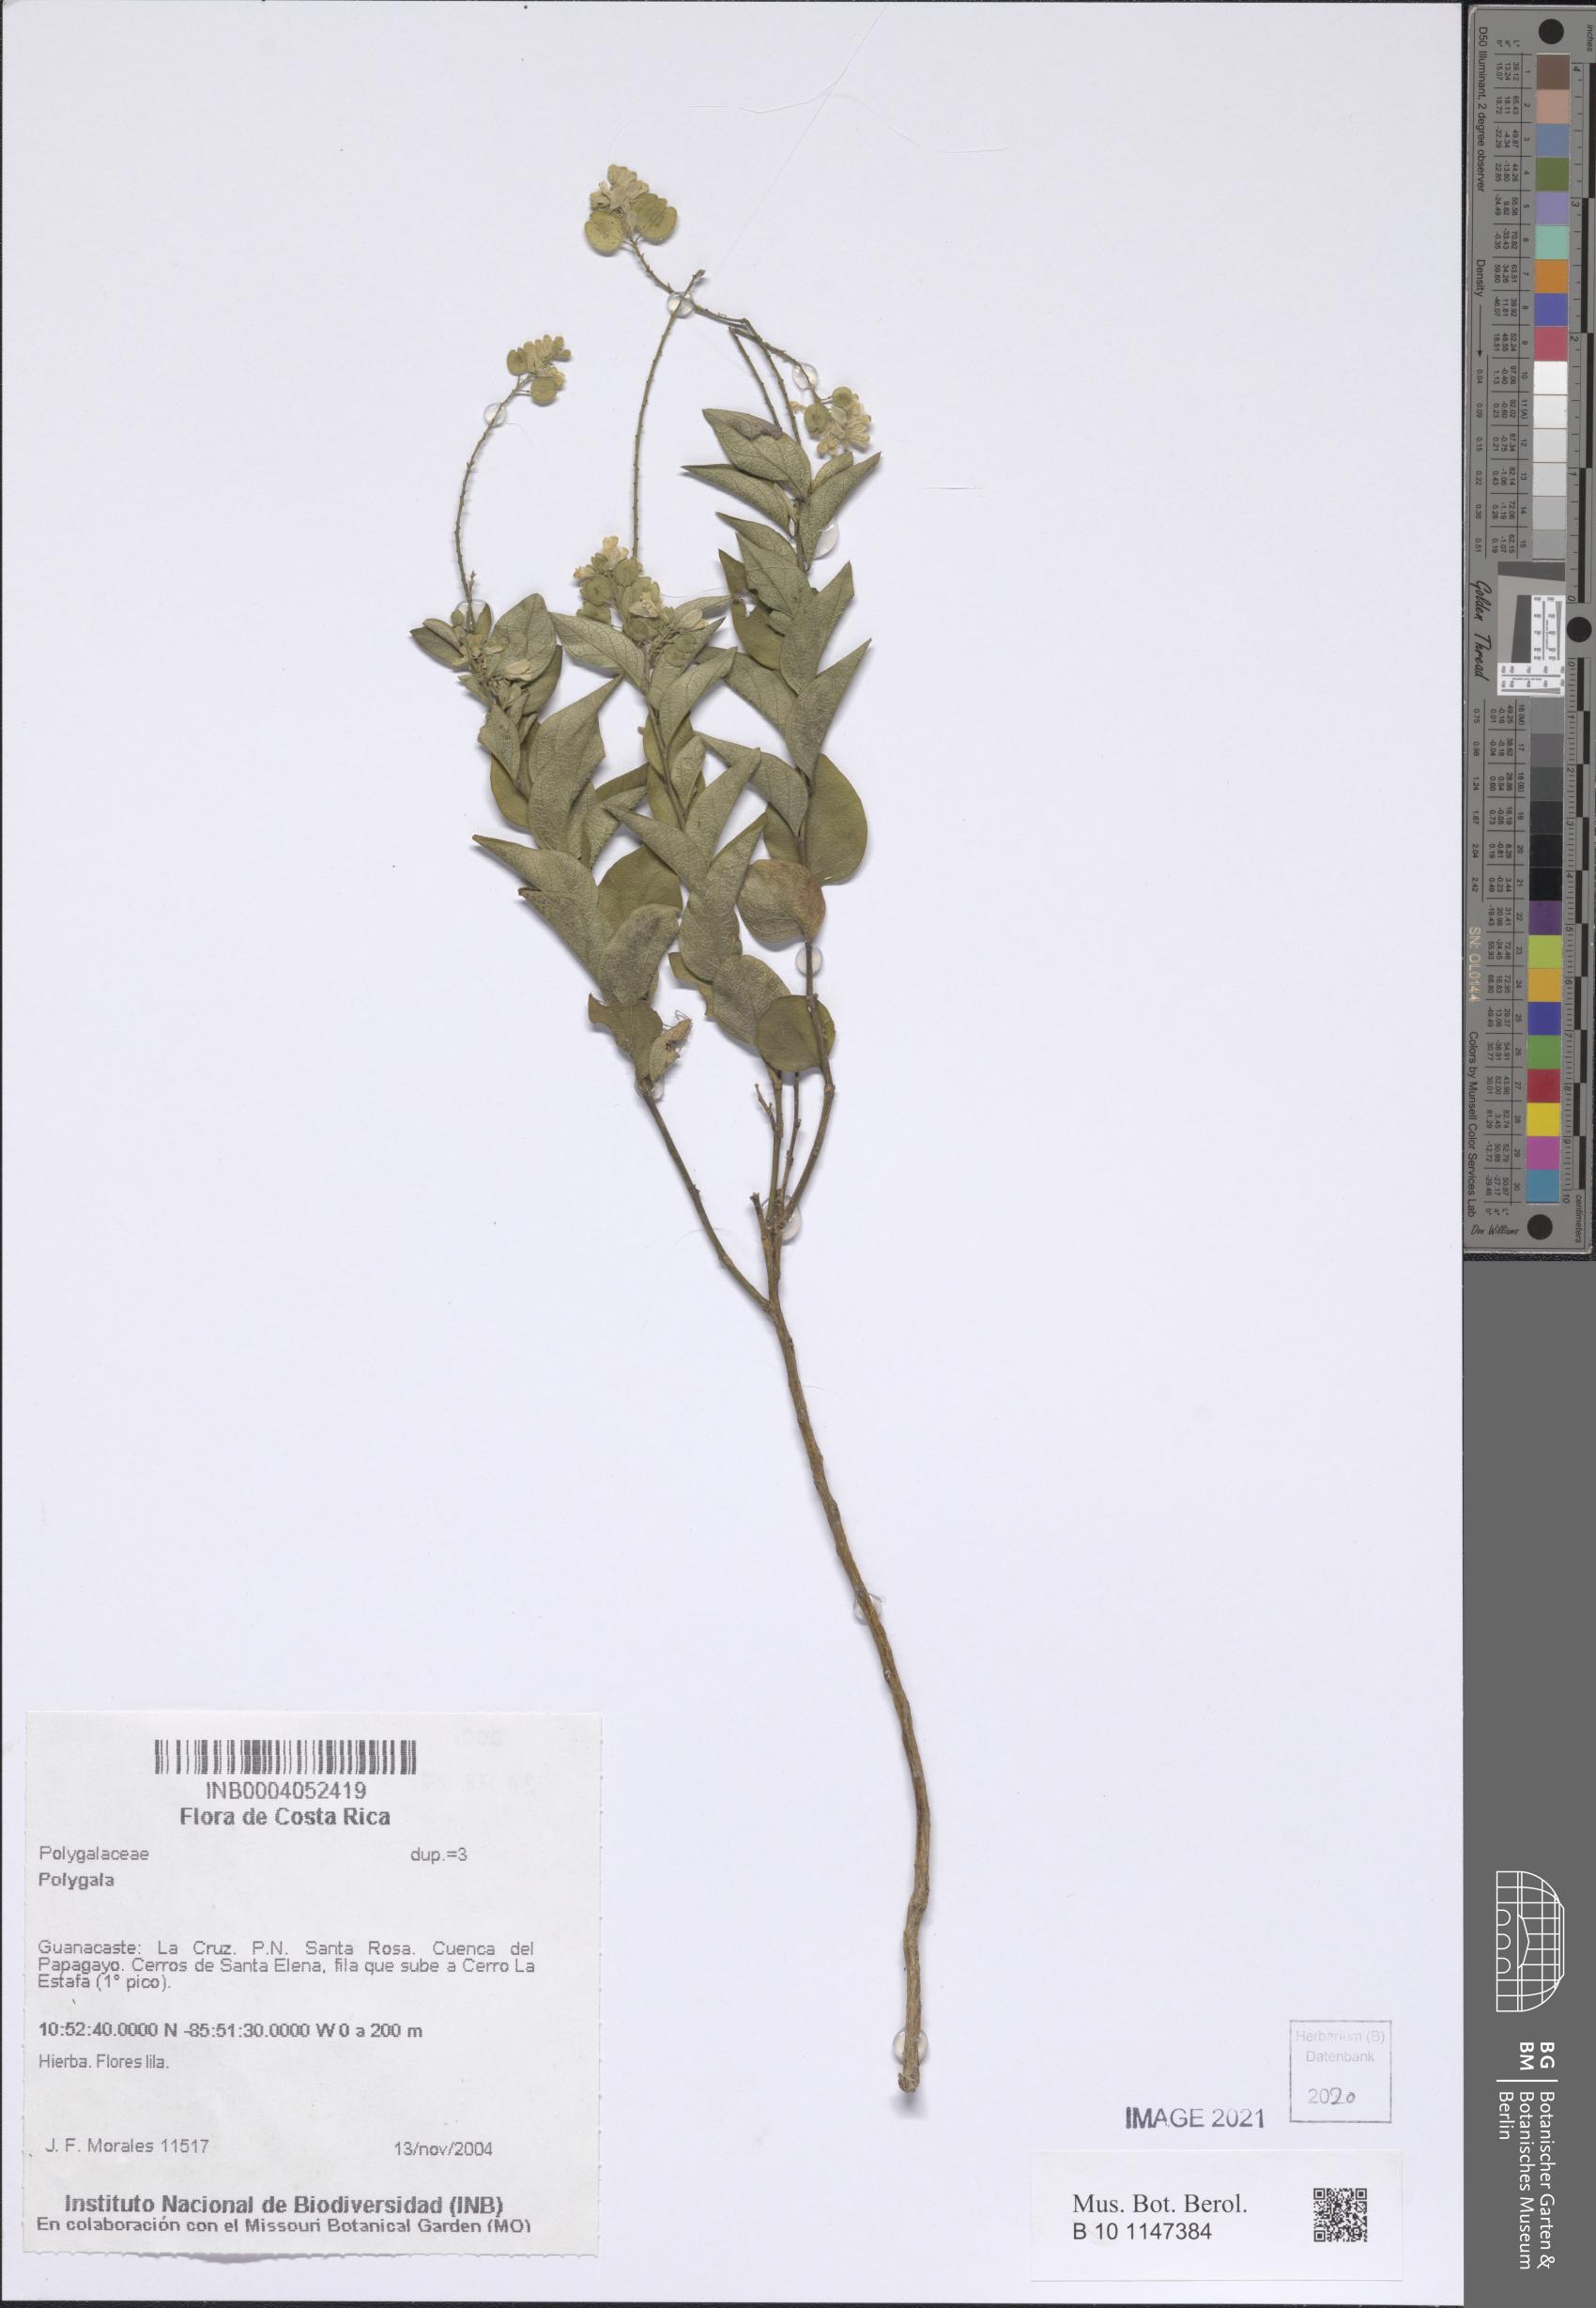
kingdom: Plantae
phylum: Tracheophyta
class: Magnoliopsida
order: Fabales
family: Polygalaceae
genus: Polygala
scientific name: Polygala
